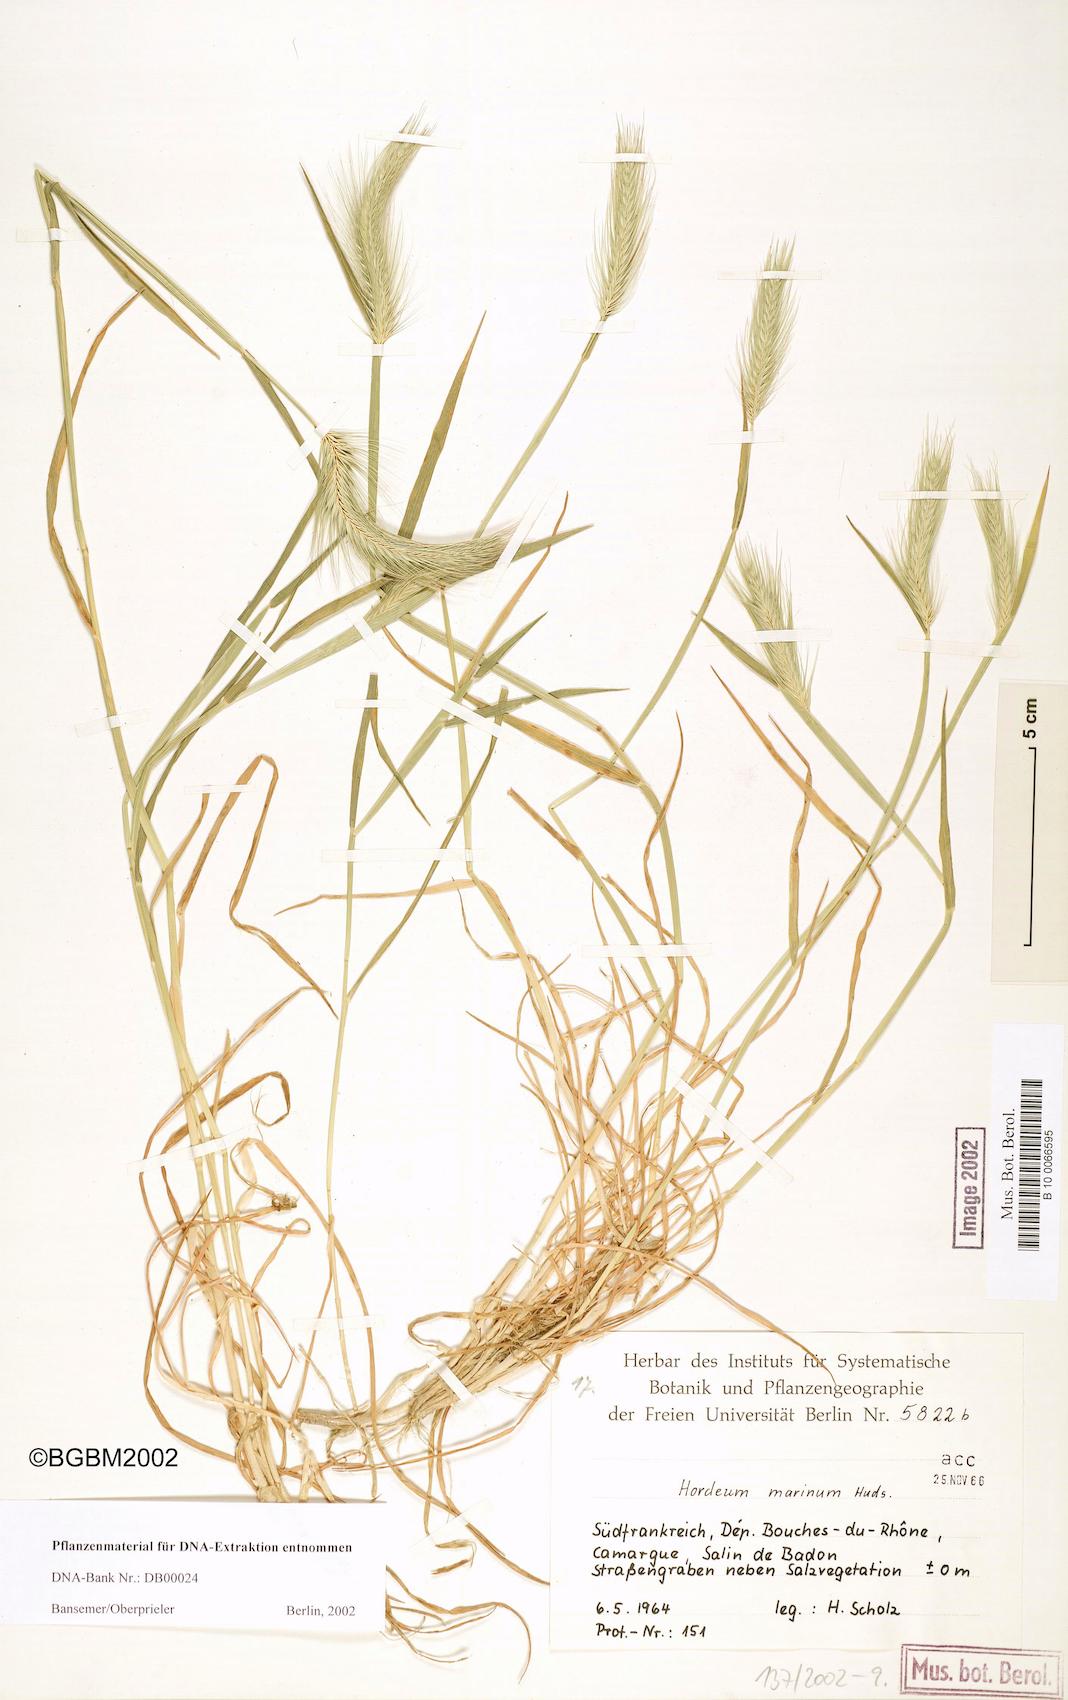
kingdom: Plantae
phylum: Tracheophyta
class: Liliopsida
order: Poales
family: Poaceae
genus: Hordeum
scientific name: Hordeum marinum
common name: Sea barley
